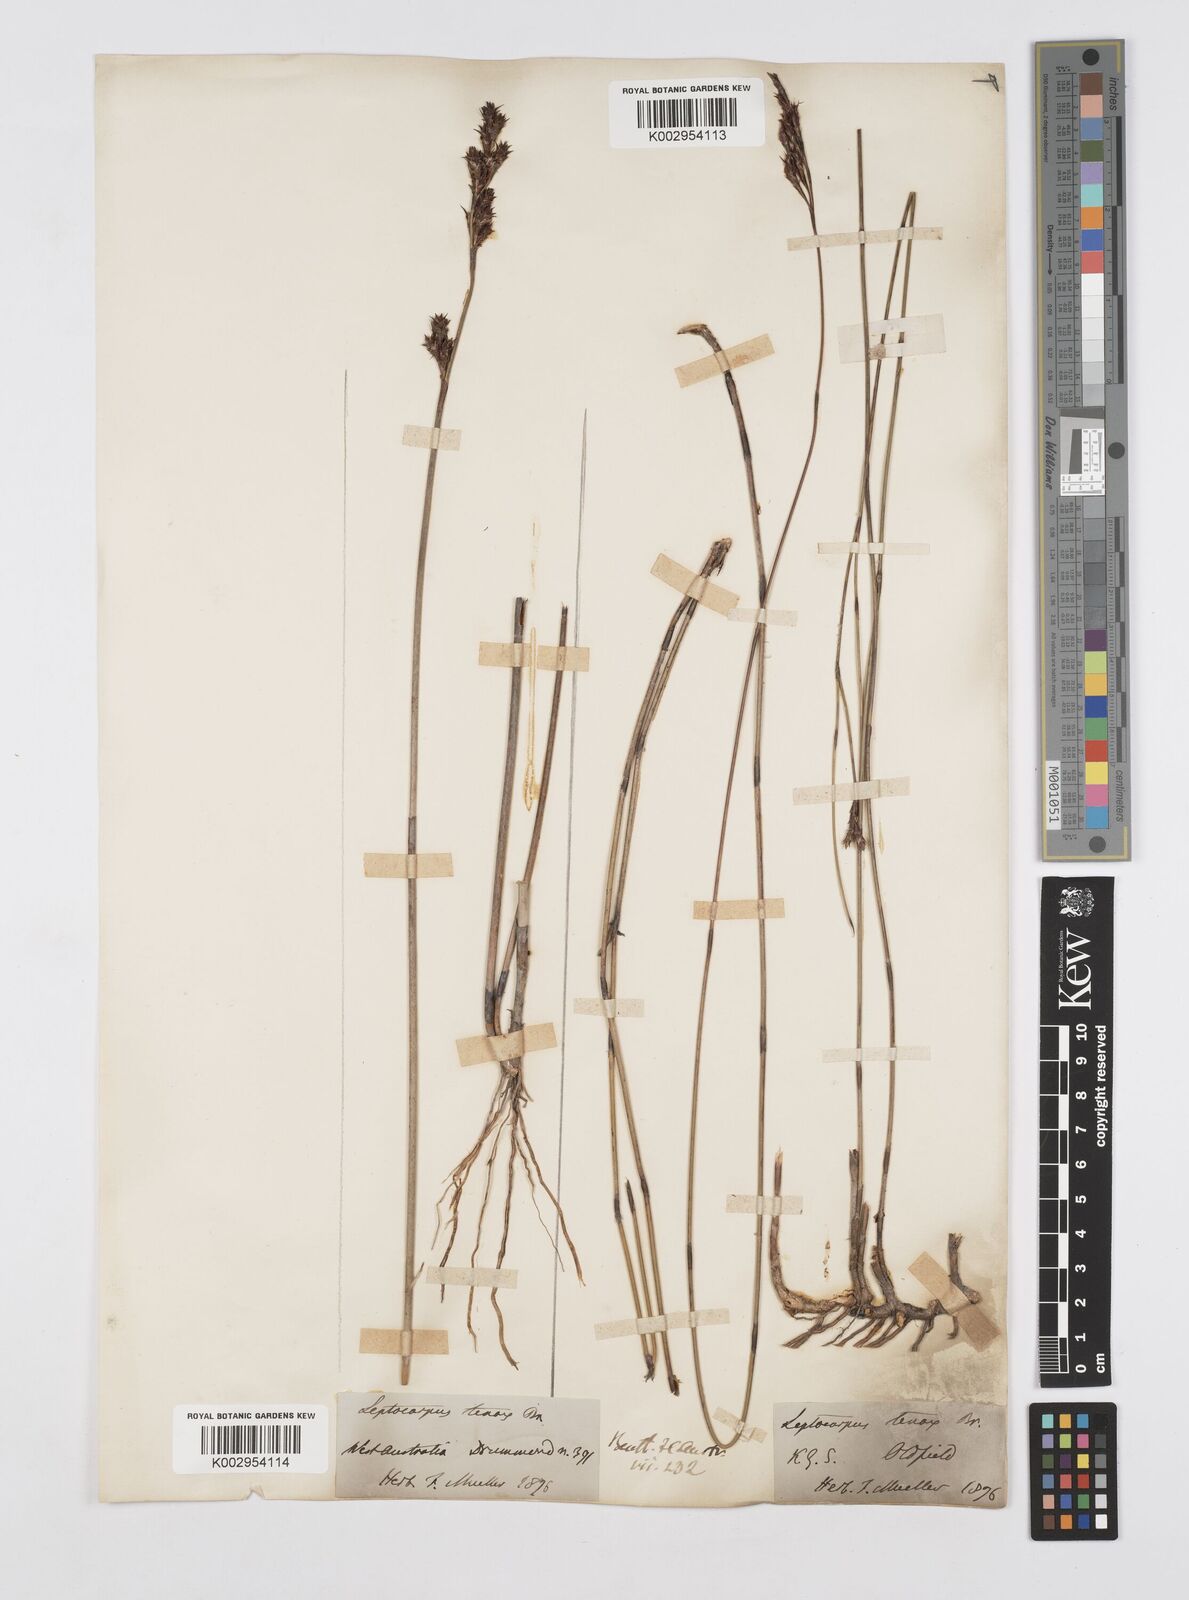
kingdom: Plantae
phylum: Tracheophyta
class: Liliopsida
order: Poales
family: Restionaceae
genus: Leptocarpus
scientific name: Leptocarpus tenax
